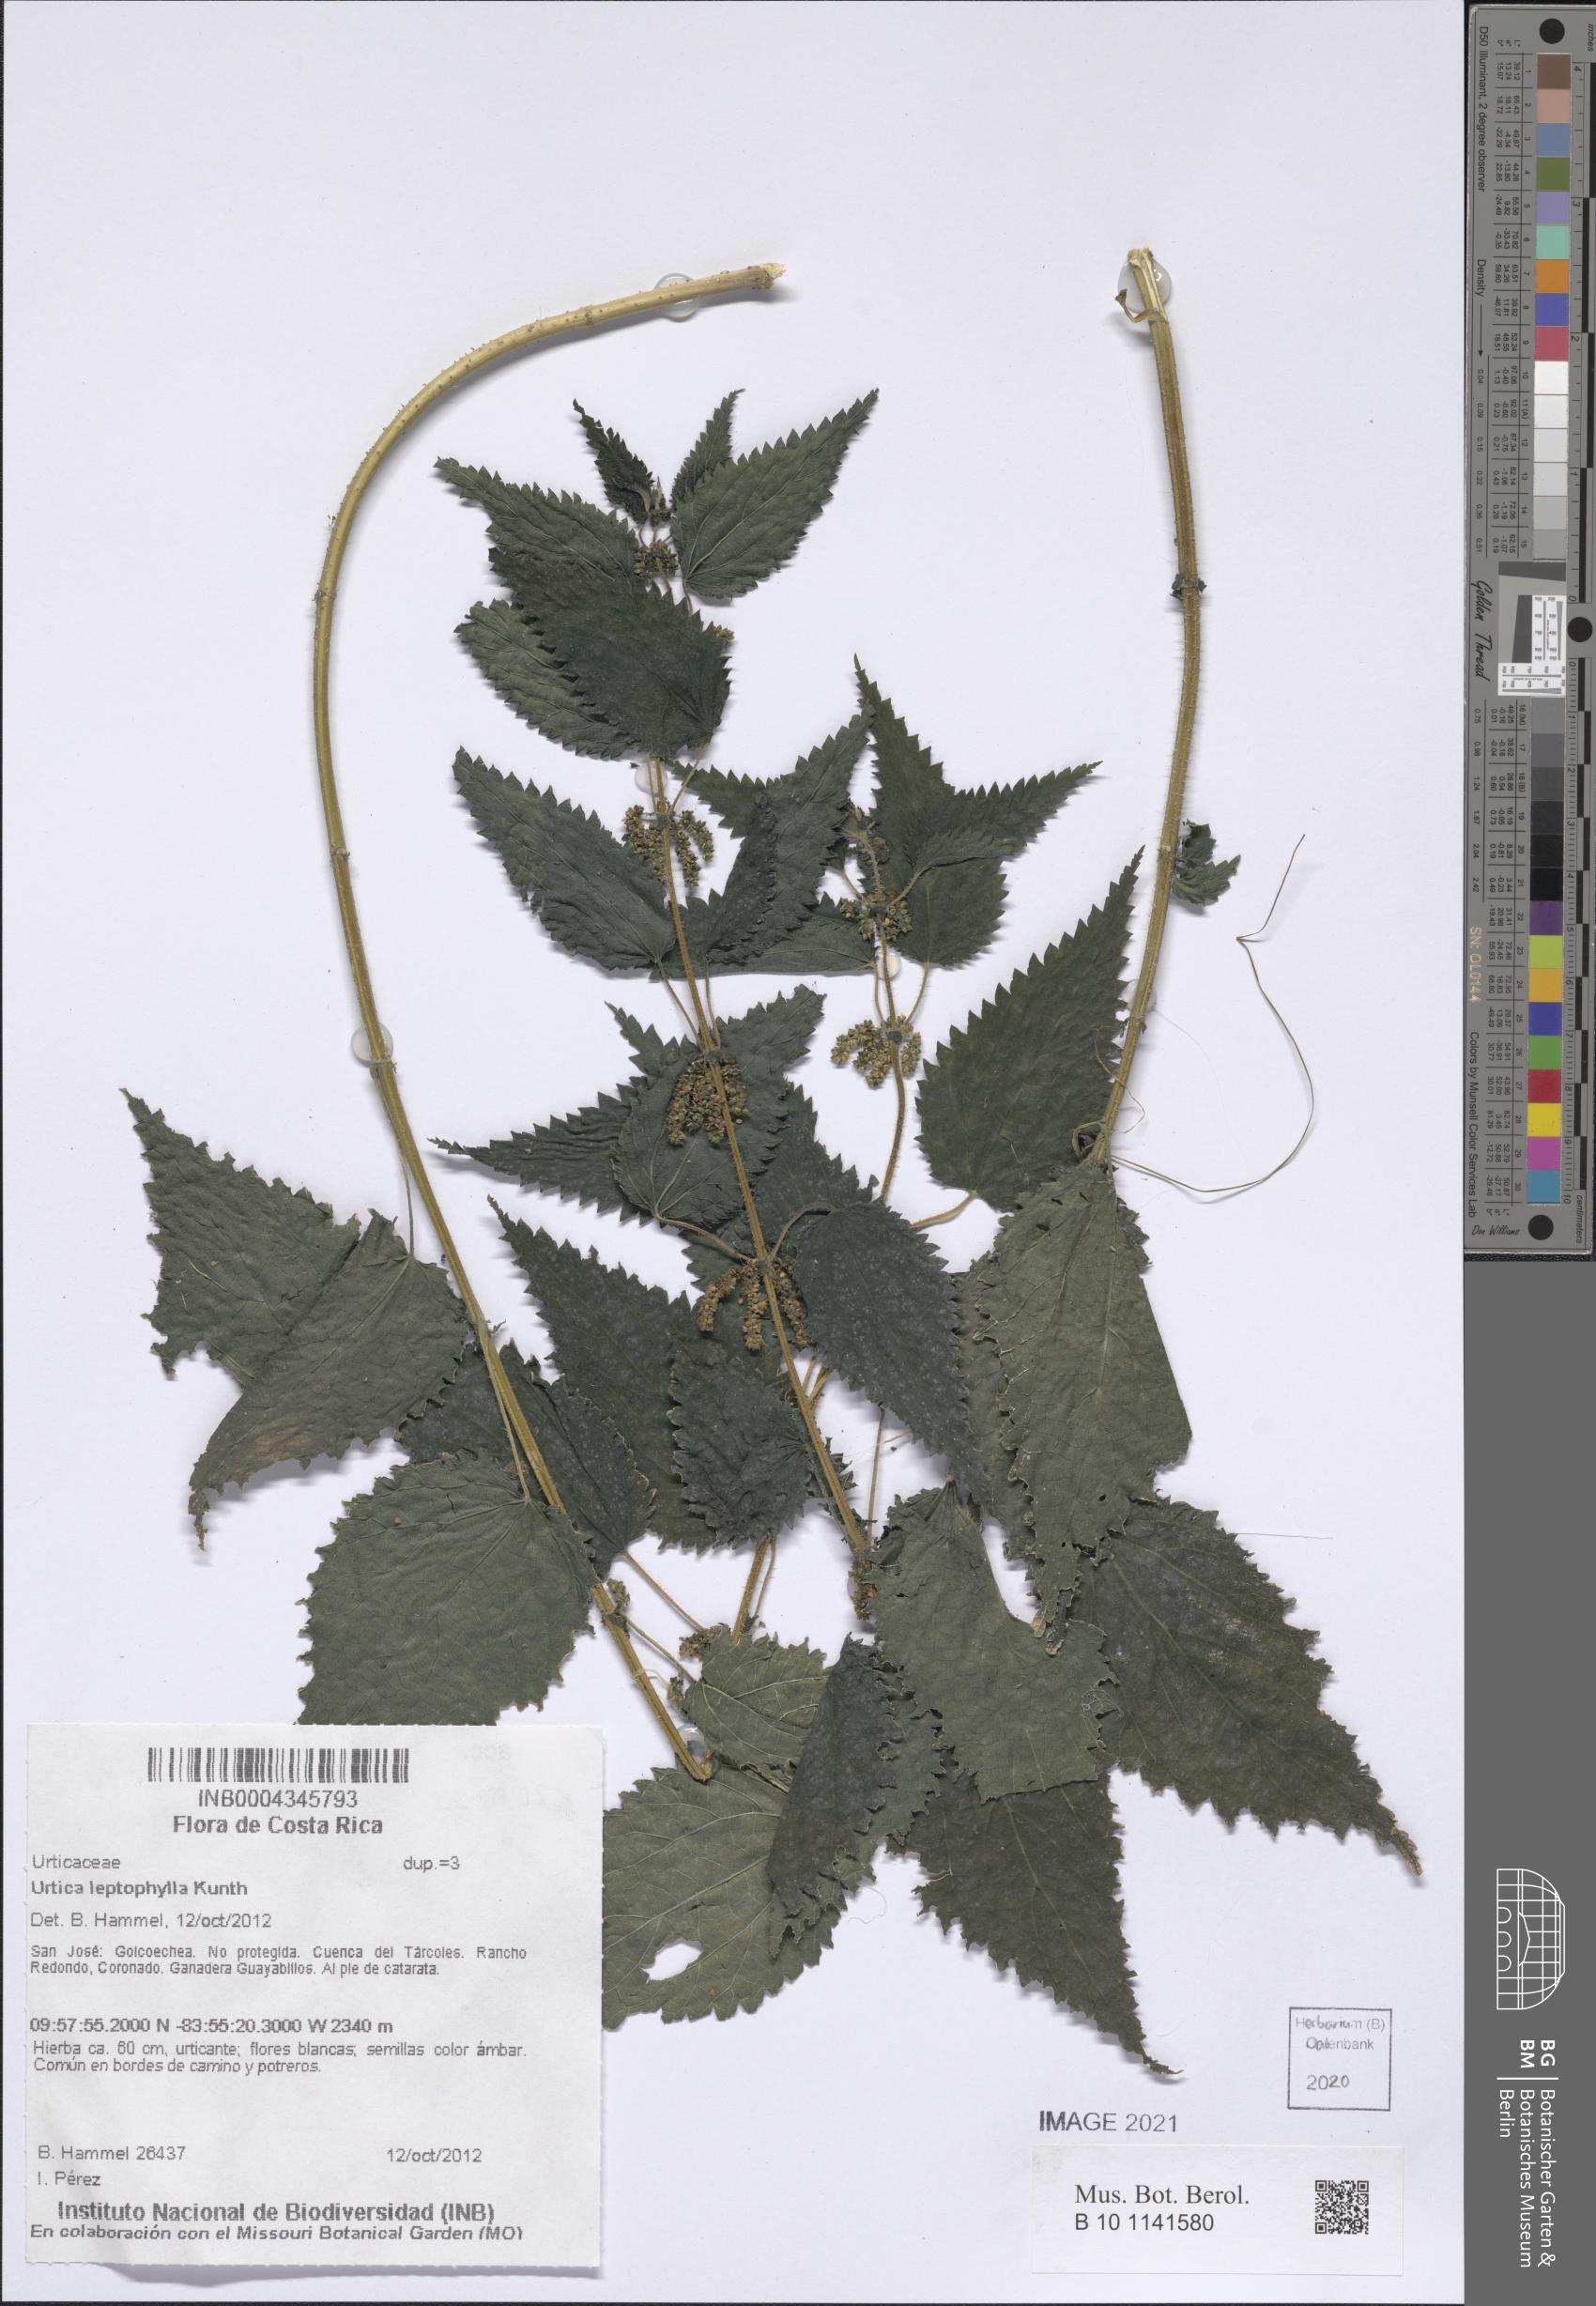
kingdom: Plantae
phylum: Tracheophyta
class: Magnoliopsida
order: Rosales
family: Urticaceae
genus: Urtica
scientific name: Urtica leptophylla
